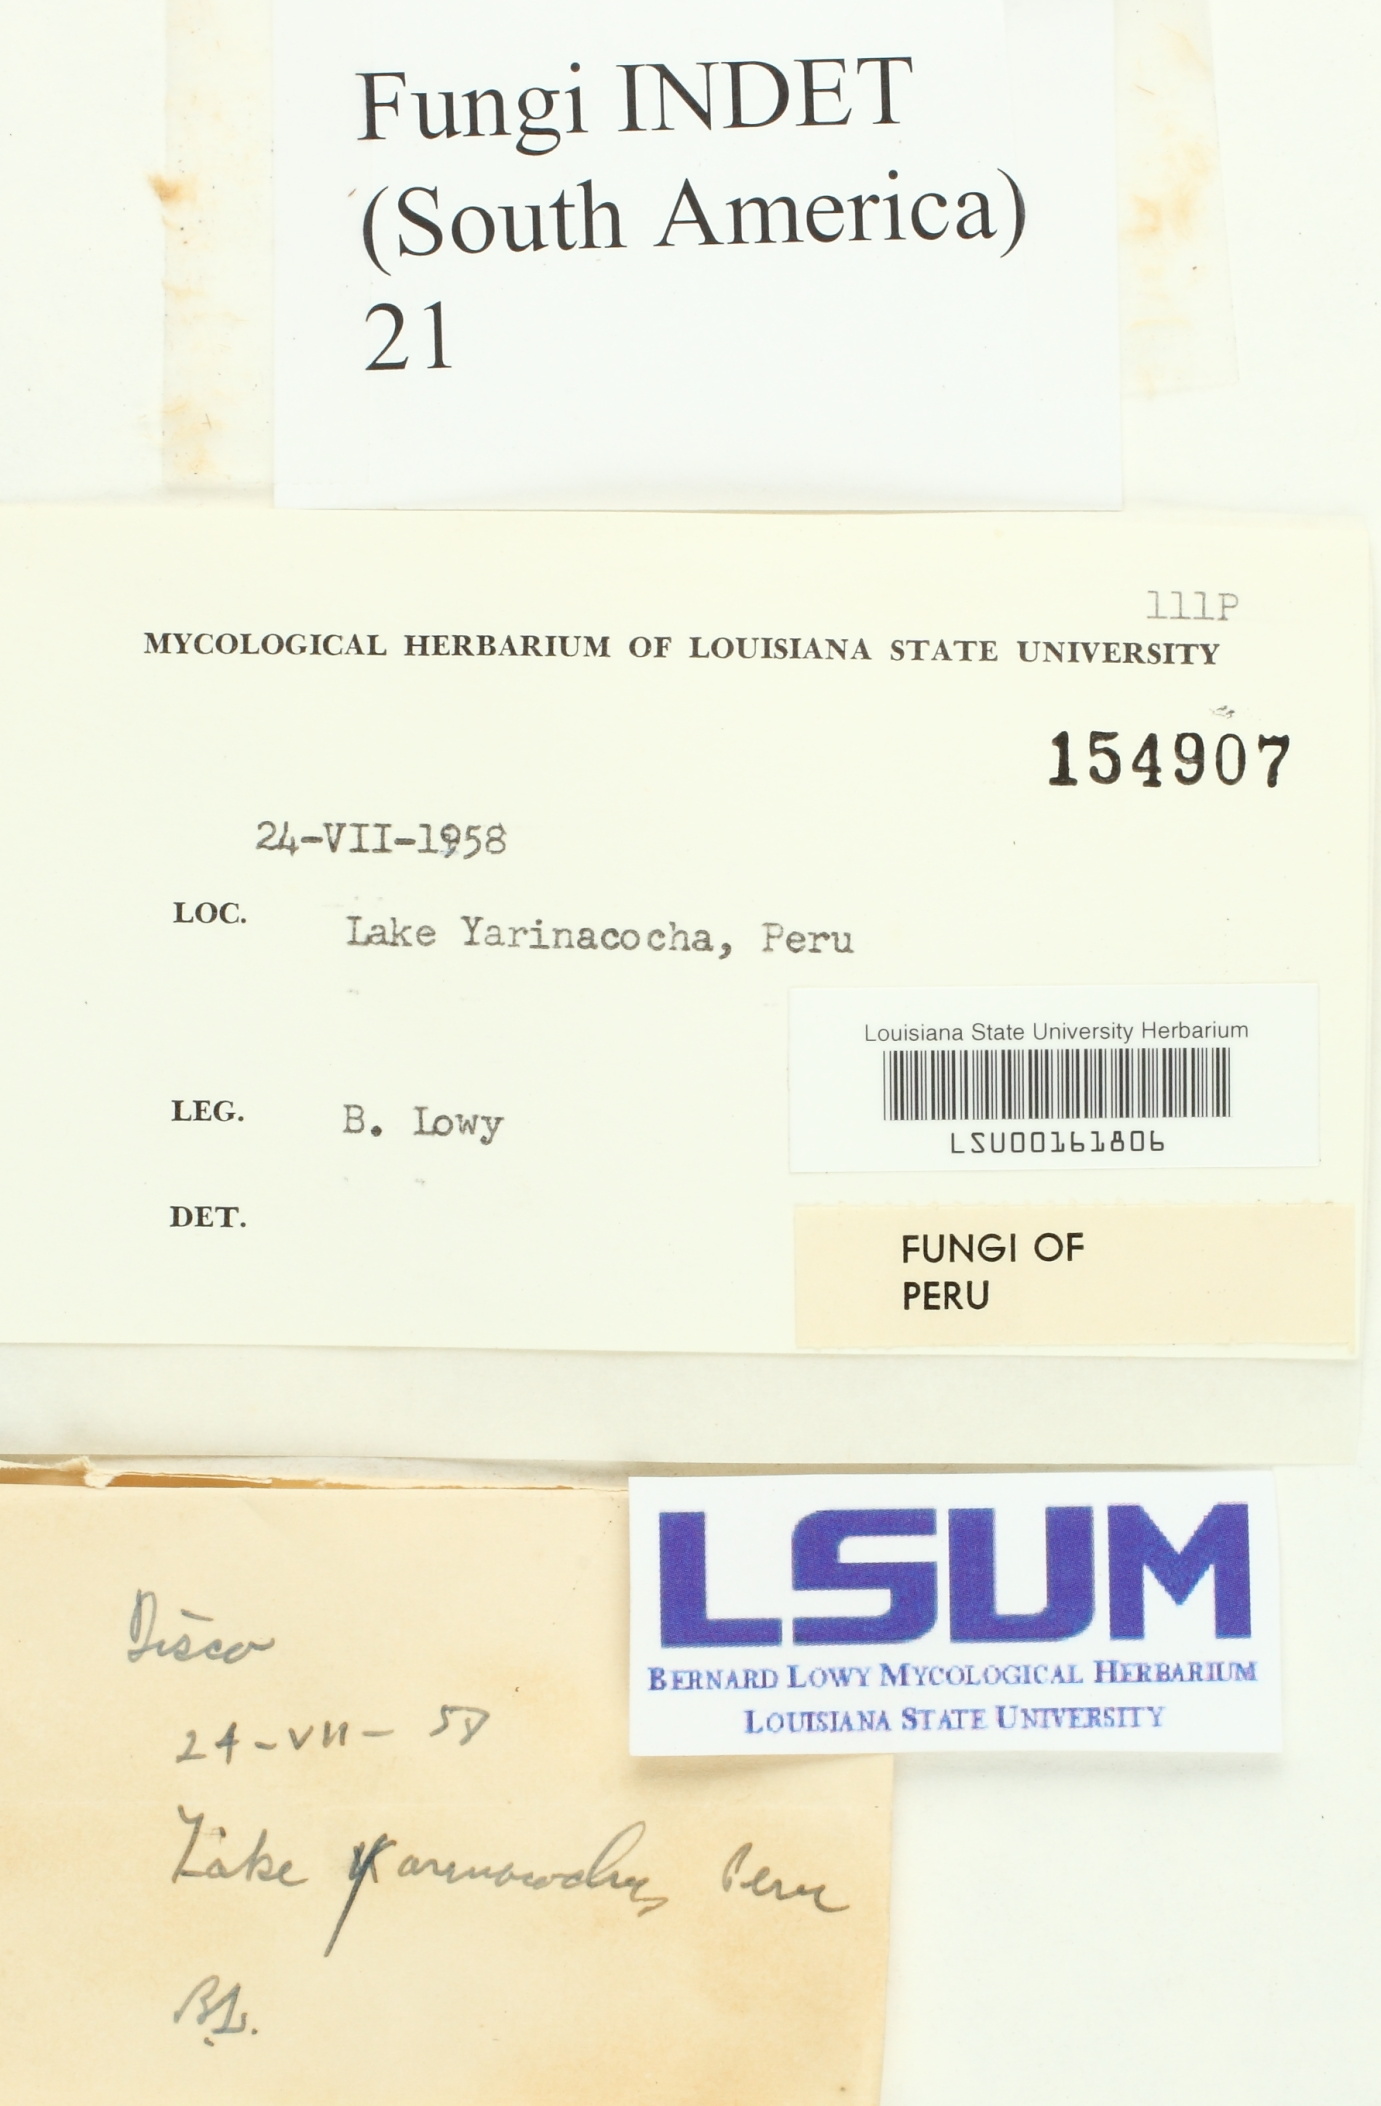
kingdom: Fungi
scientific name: Fungi
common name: Fungi
